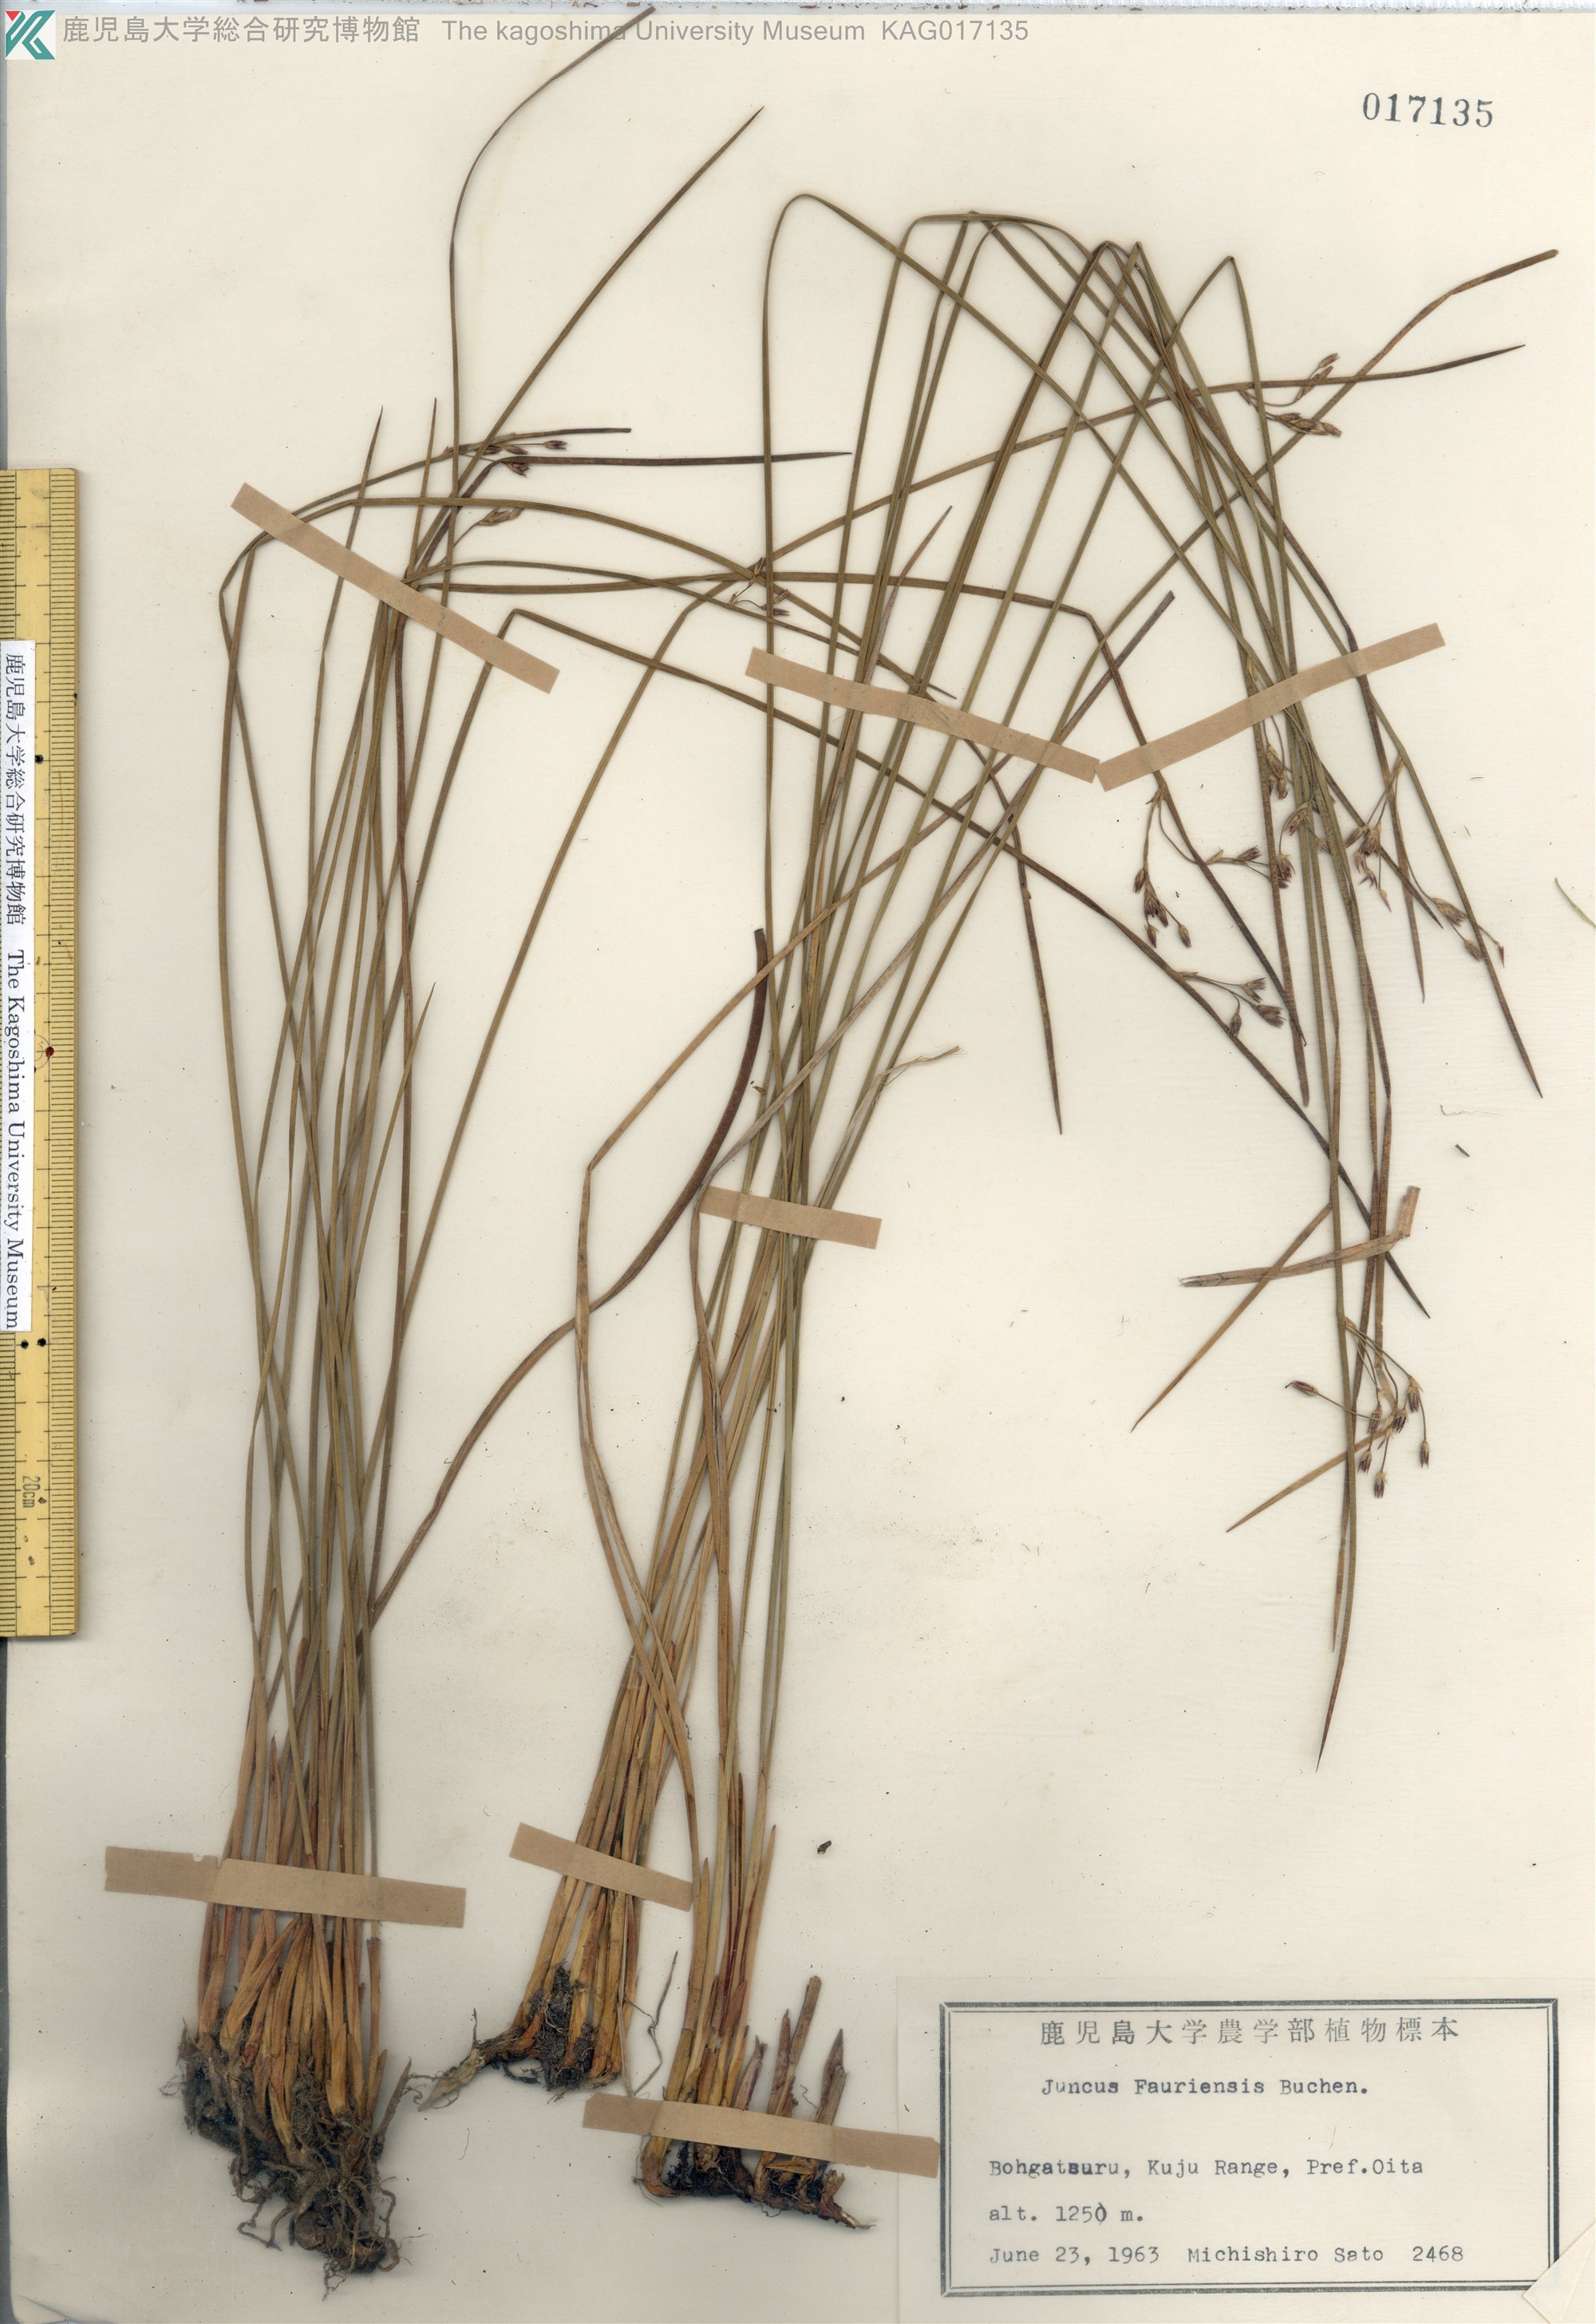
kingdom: Plantae
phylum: Tracheophyta
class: Liliopsida
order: Poales
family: Juncaceae
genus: Juncus
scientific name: Juncus fauriei
